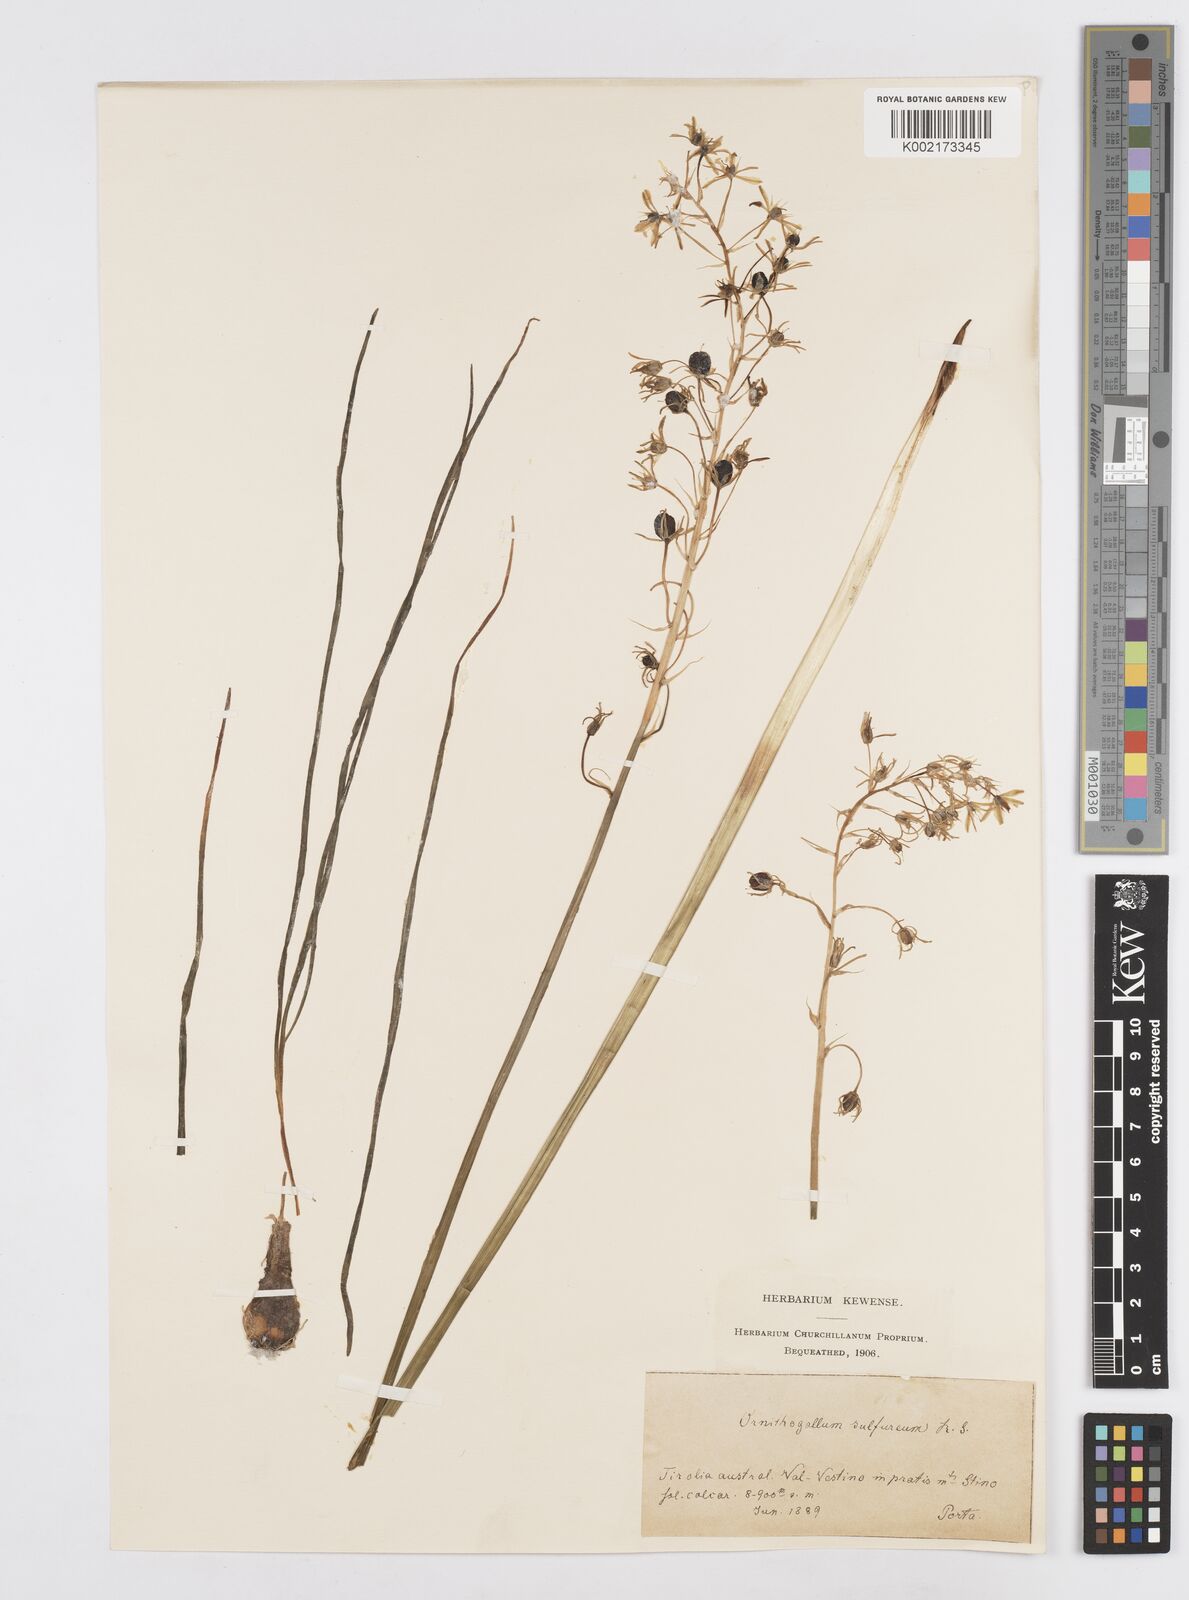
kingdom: Plantae
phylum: Tracheophyta
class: Liliopsida
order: Asparagales
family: Asparagaceae
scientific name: Asparagaceae
